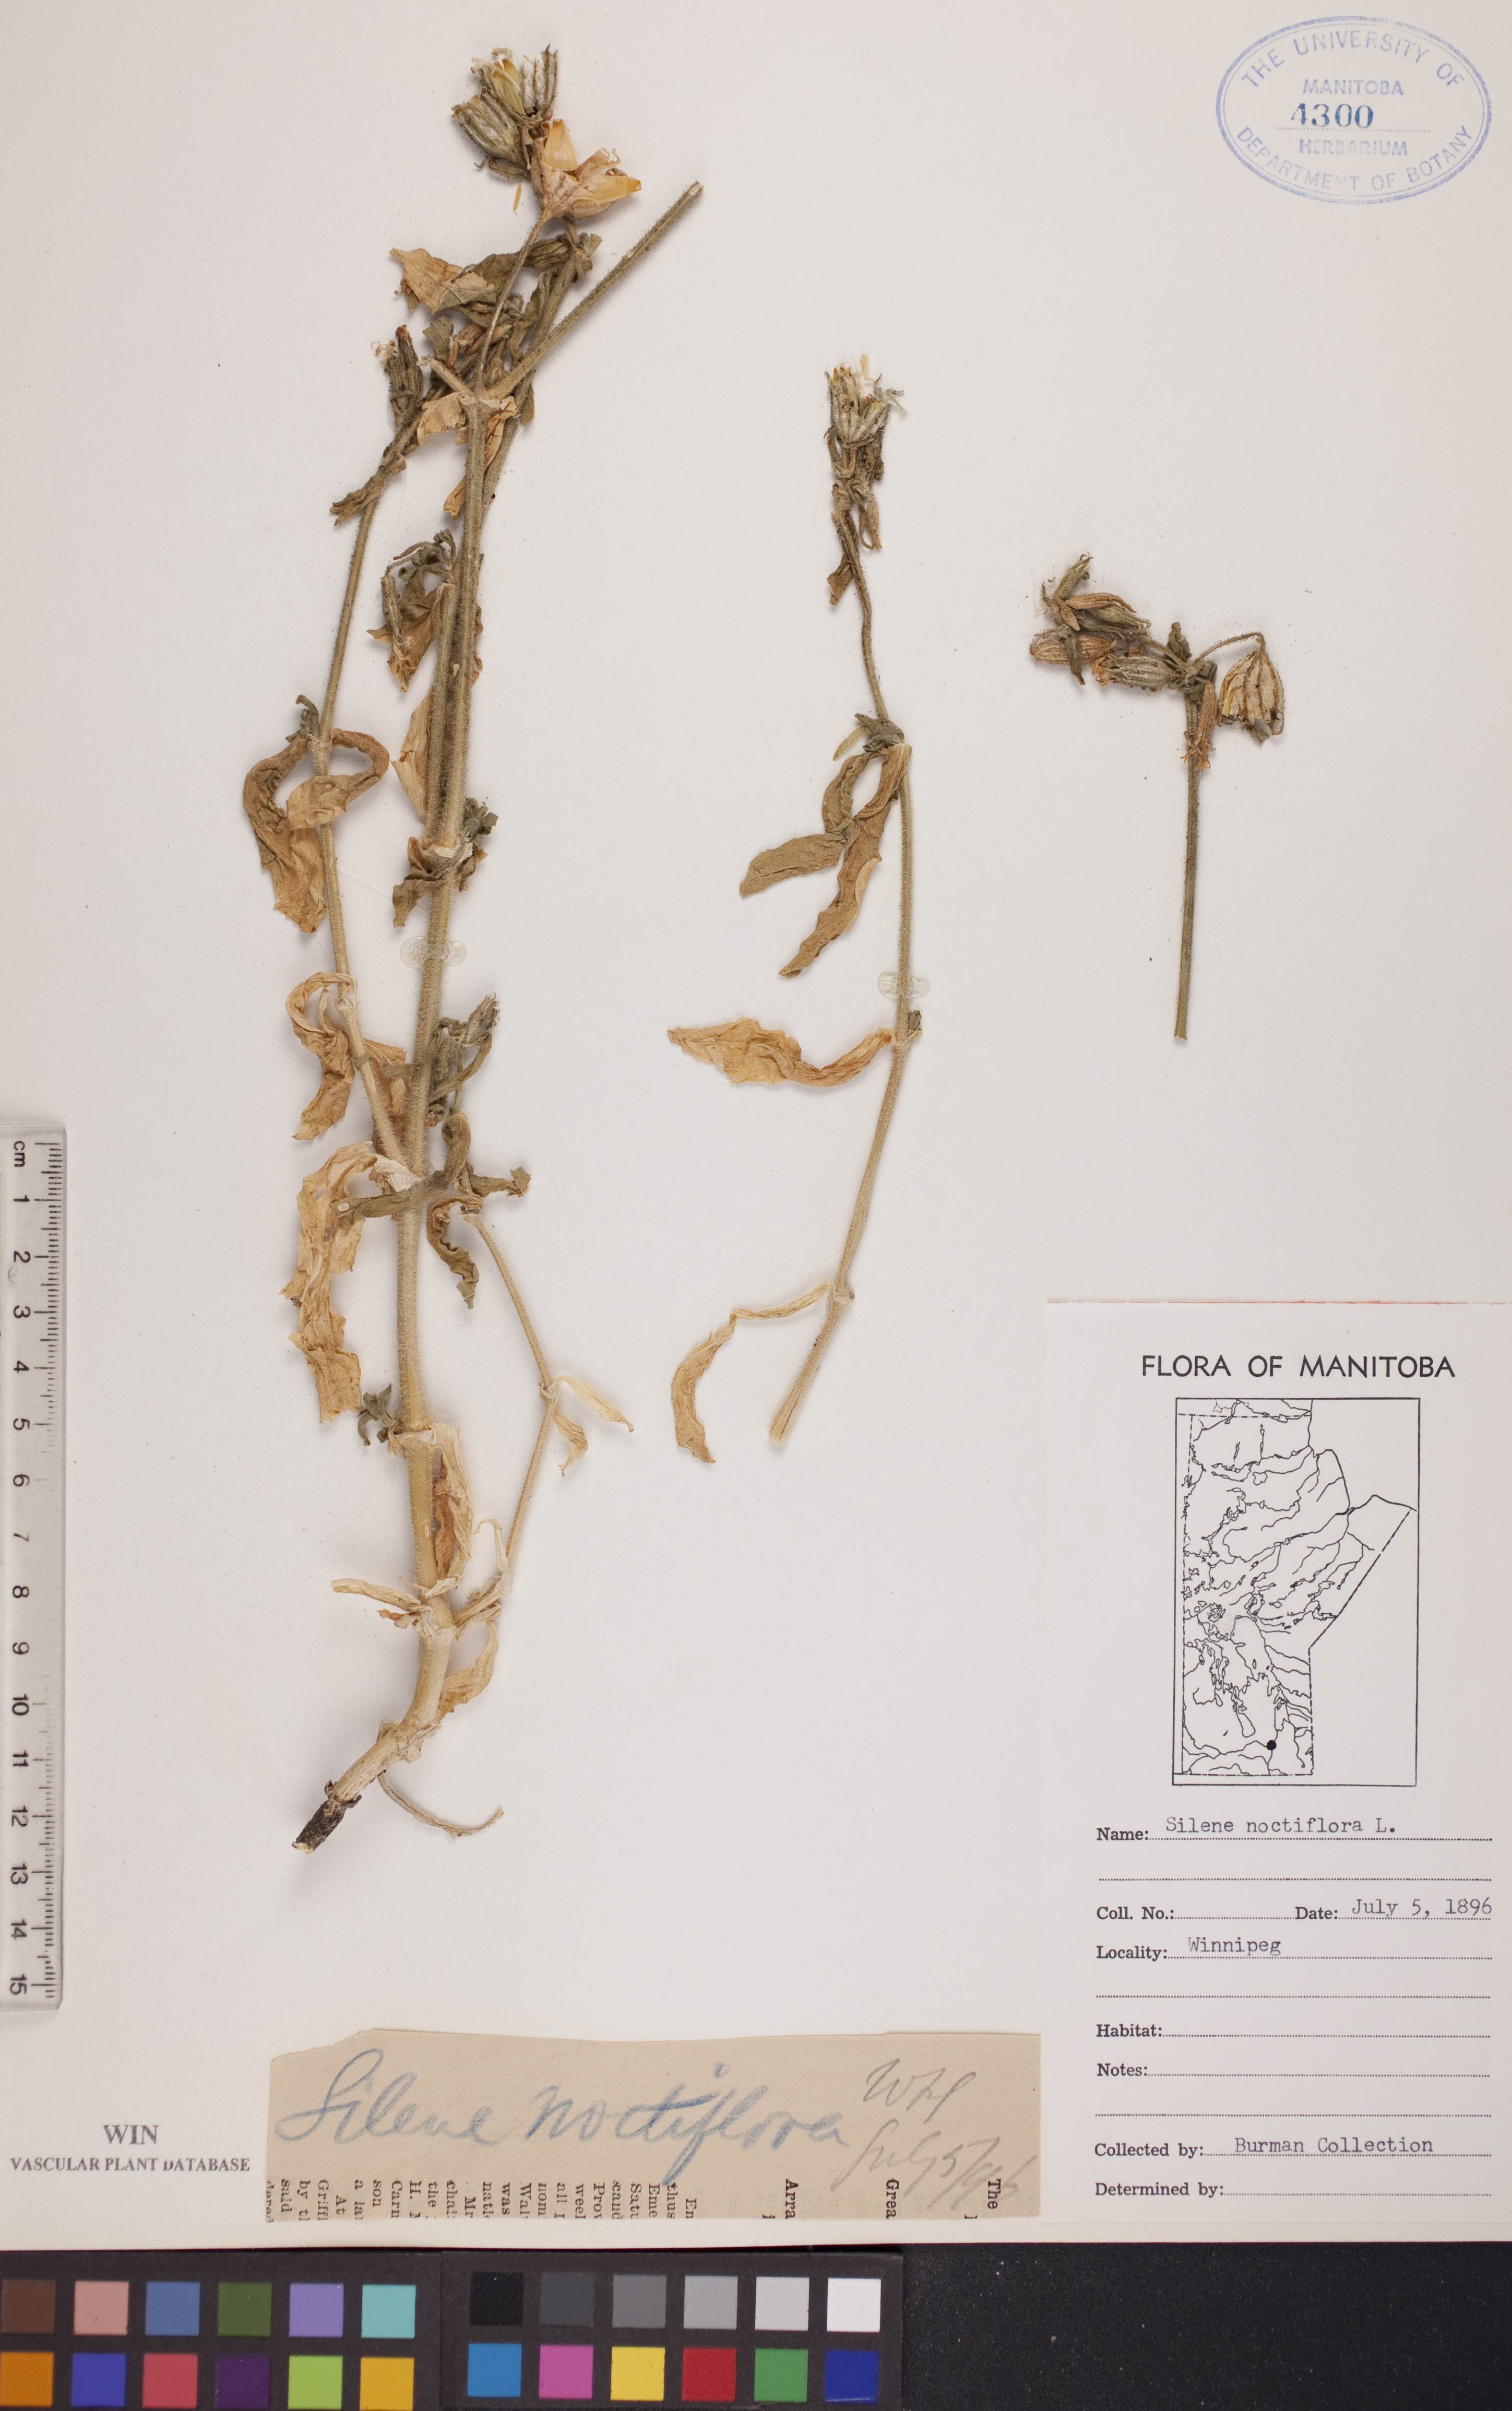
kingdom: Plantae
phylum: Tracheophyta
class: Magnoliopsida
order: Caryophyllales
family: Caryophyllaceae
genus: Silene
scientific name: Silene noctiflora
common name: Night-flowering catchfly
